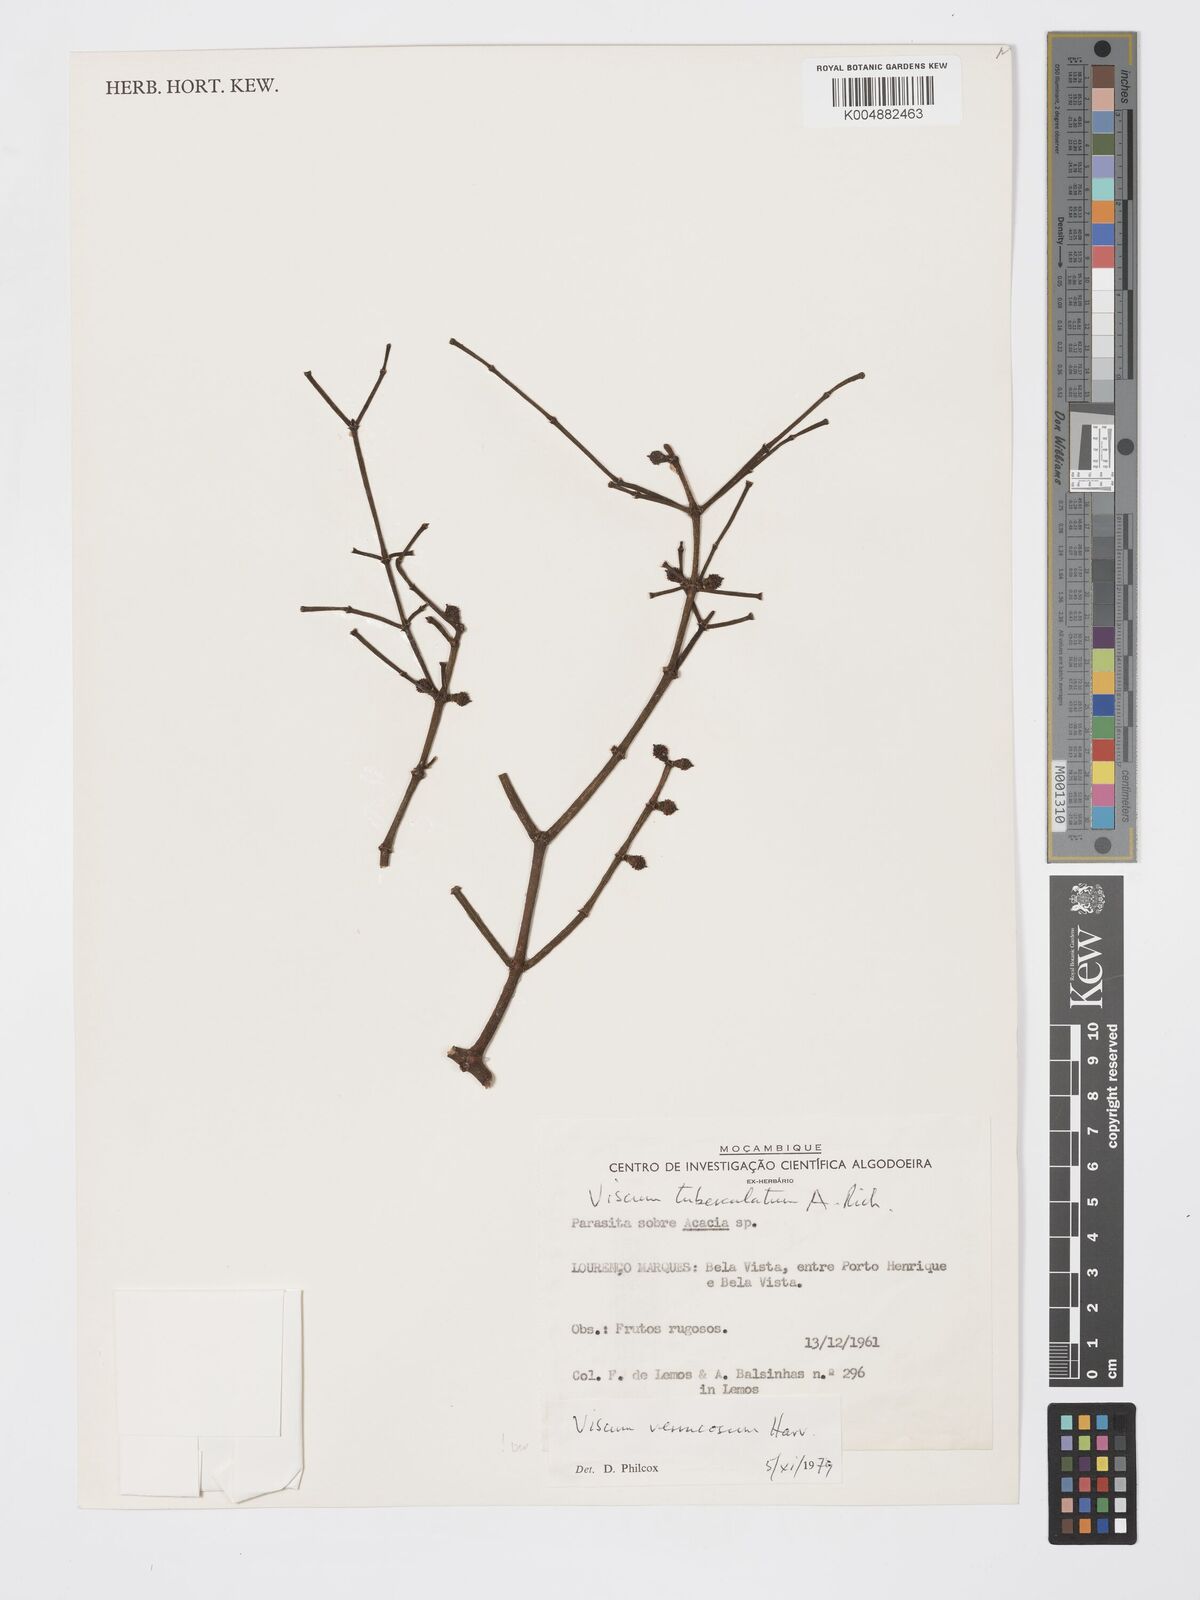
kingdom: Plantae
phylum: Tracheophyta
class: Magnoliopsida
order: Santalales
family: Viscaceae
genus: Viscum
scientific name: Viscum verrucosum
